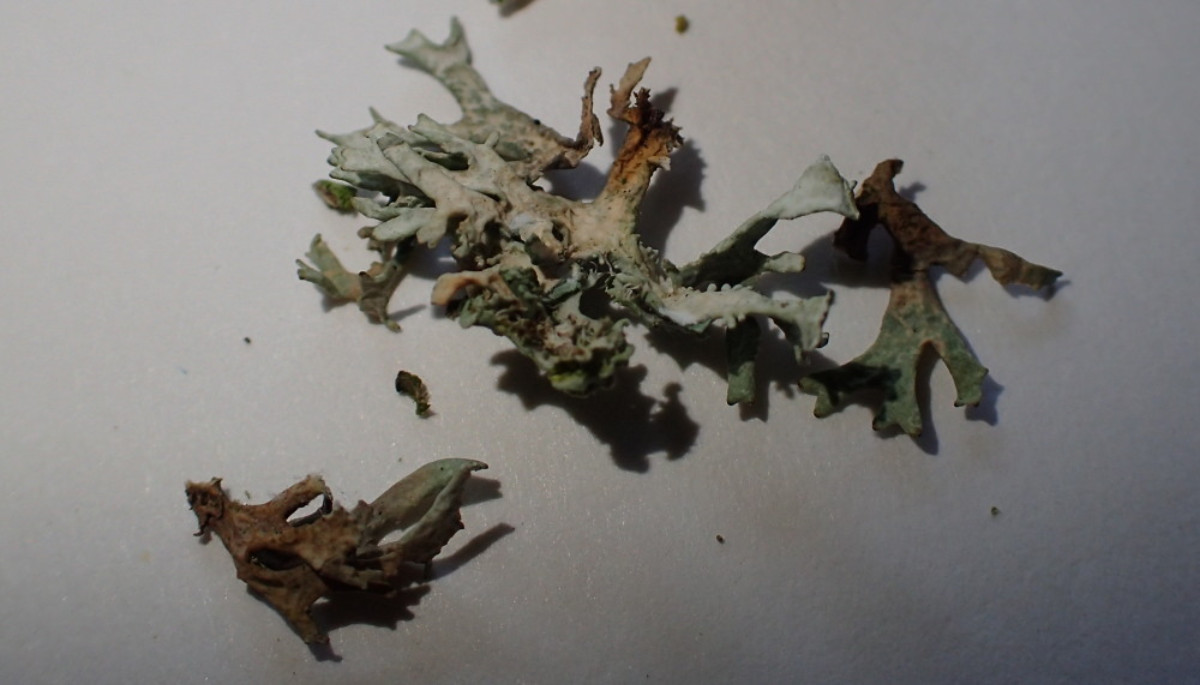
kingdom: Fungi
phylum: Ascomycota
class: Lecanoromycetes
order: Lecanorales
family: Parmeliaceae
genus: Evernia
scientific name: Evernia prunastri
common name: almindelig slåenlav
